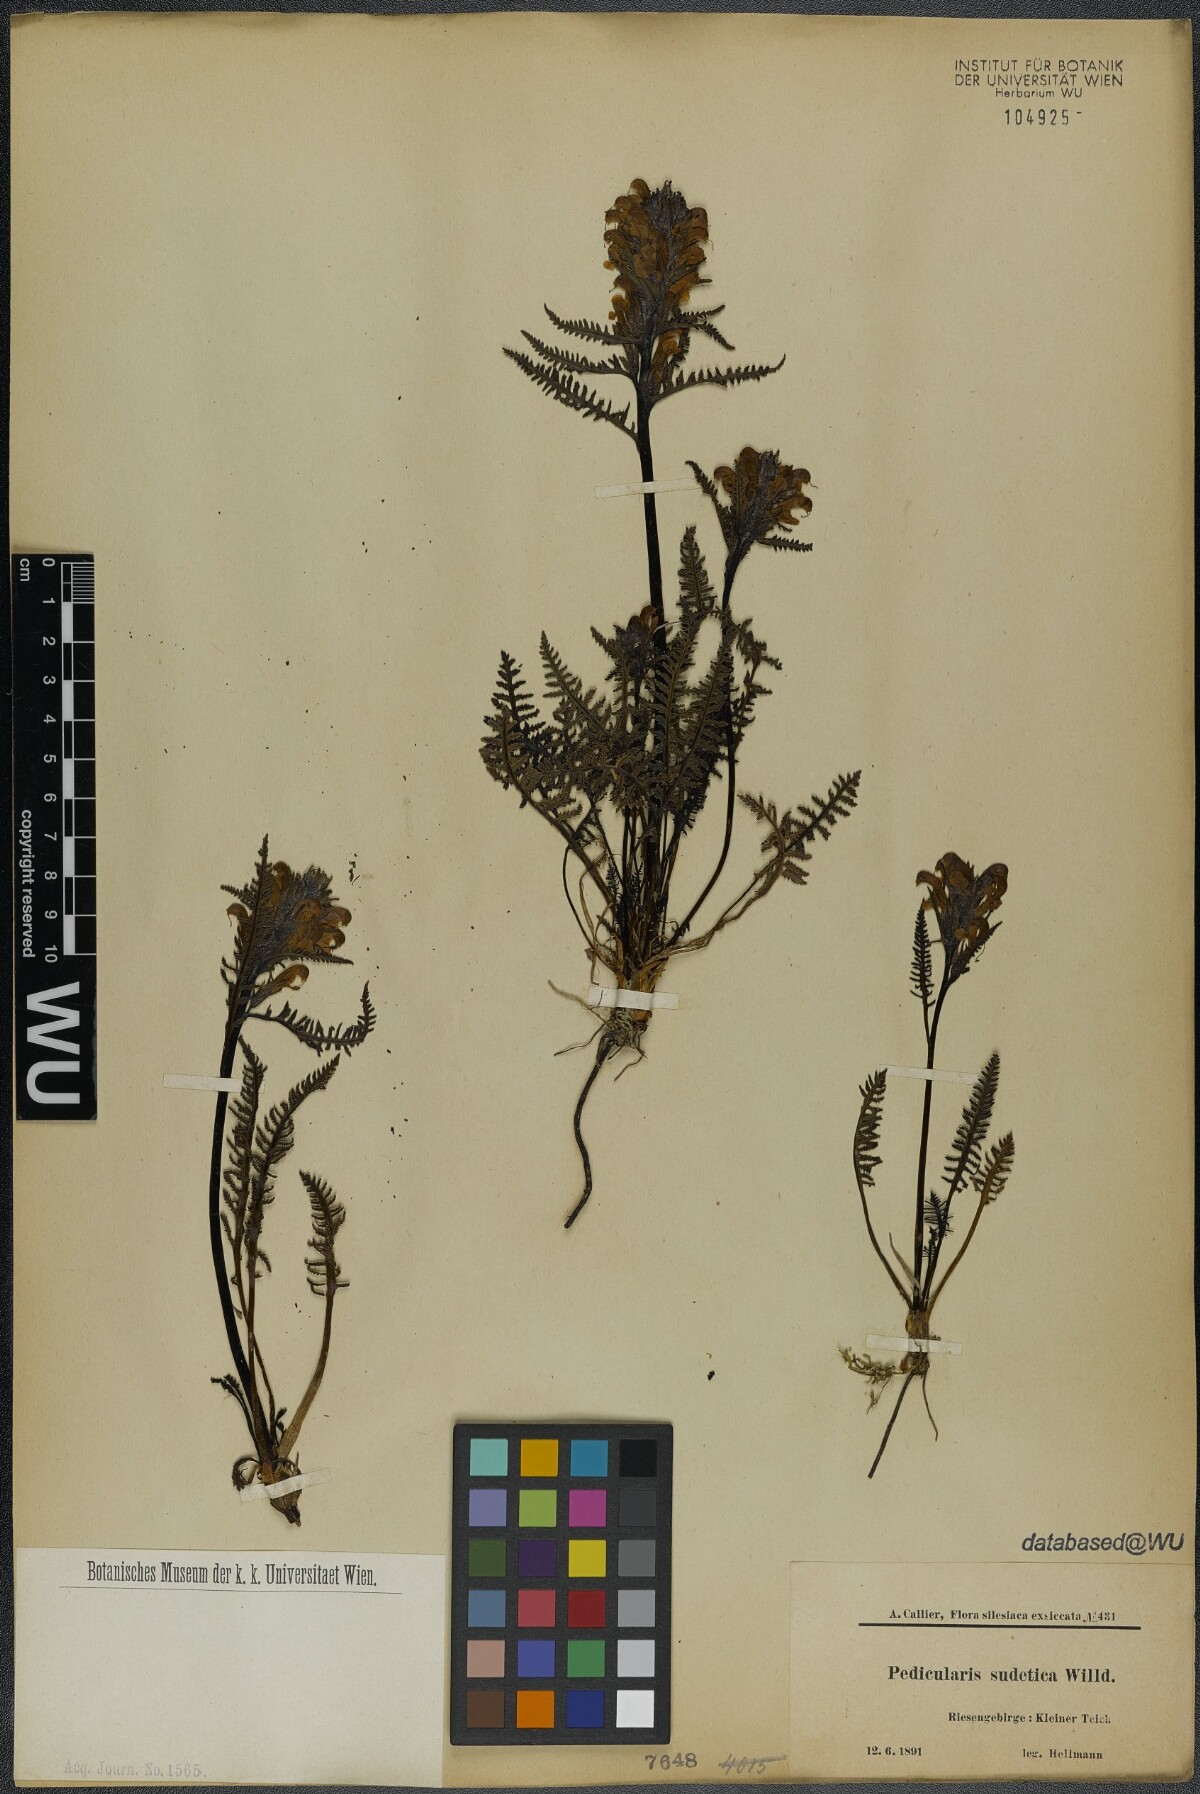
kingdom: Plantae
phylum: Tracheophyta
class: Magnoliopsida
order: Lamiales
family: Orobanchaceae
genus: Pedicularis
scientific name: Pedicularis sudetica
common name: Sudeten lousewort
